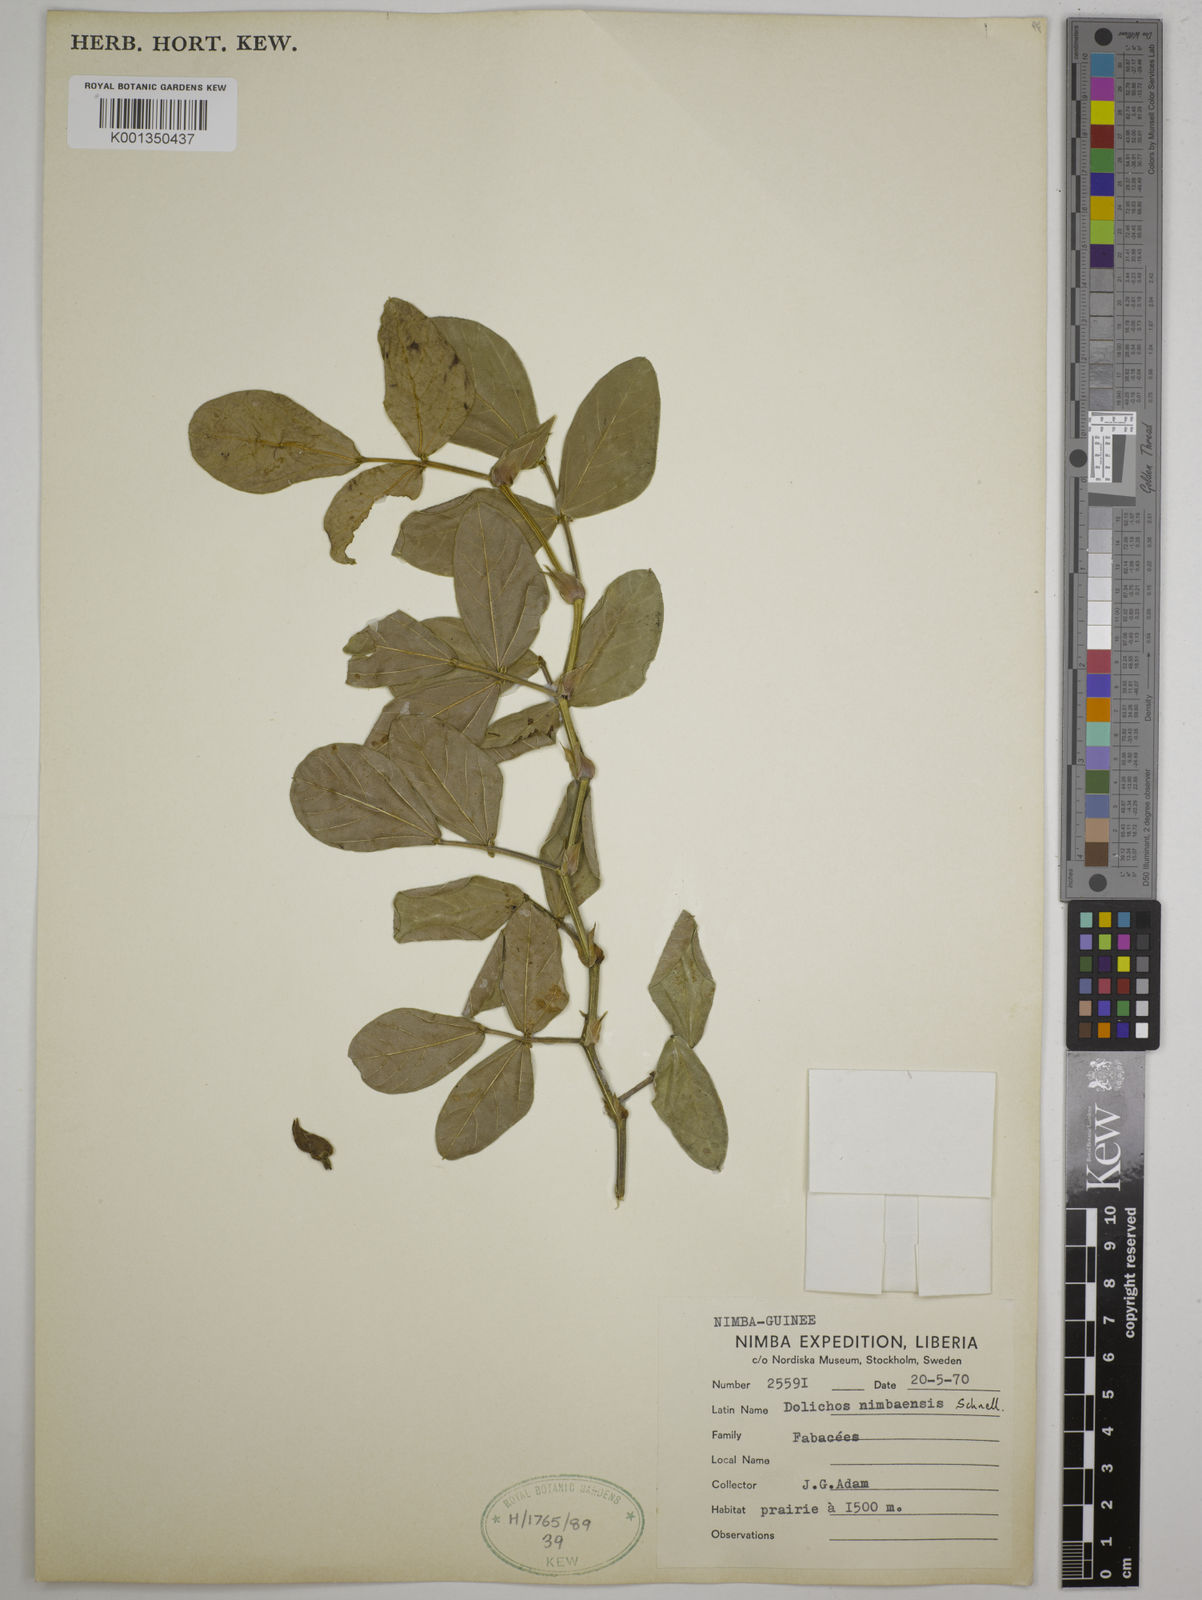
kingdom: Plantae
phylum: Tracheophyta
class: Magnoliopsida
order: Fabales
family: Fabaceae
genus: Dolichos
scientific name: Dolichos nimbaensis
